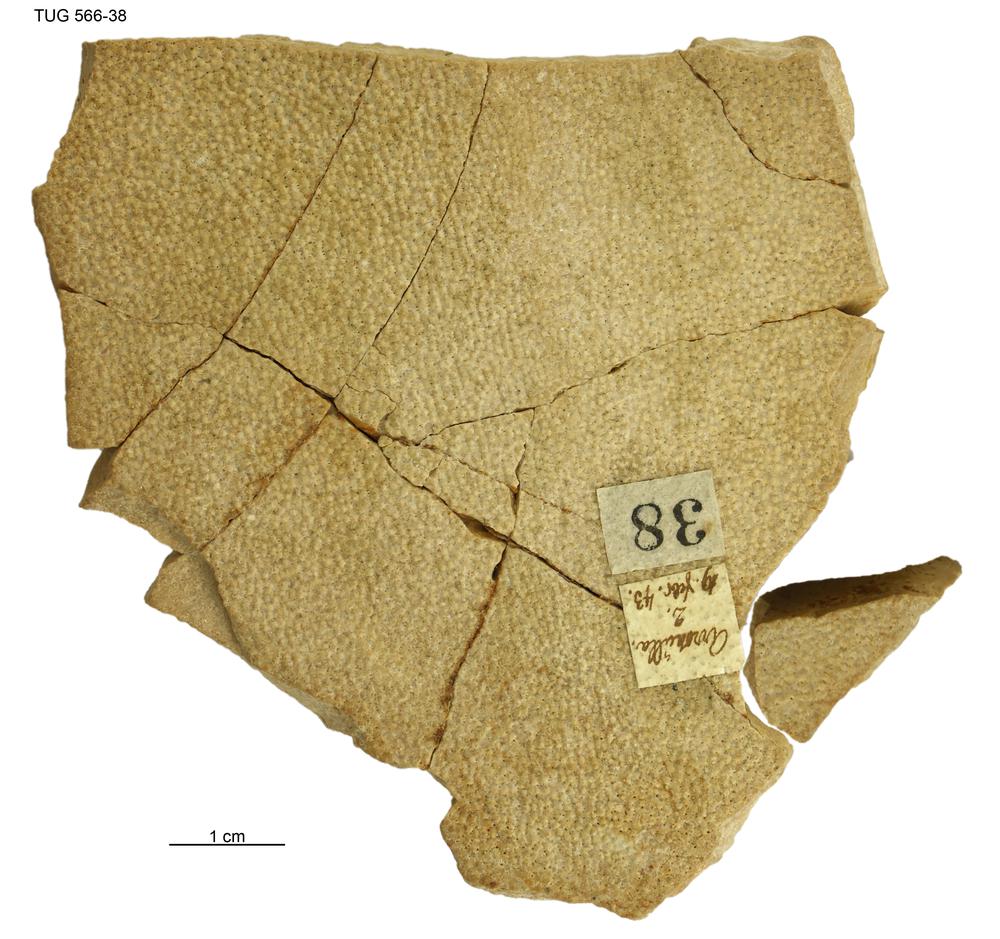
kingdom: Animalia
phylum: Chordata
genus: Homosteus
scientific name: Homosteus sulcatus
